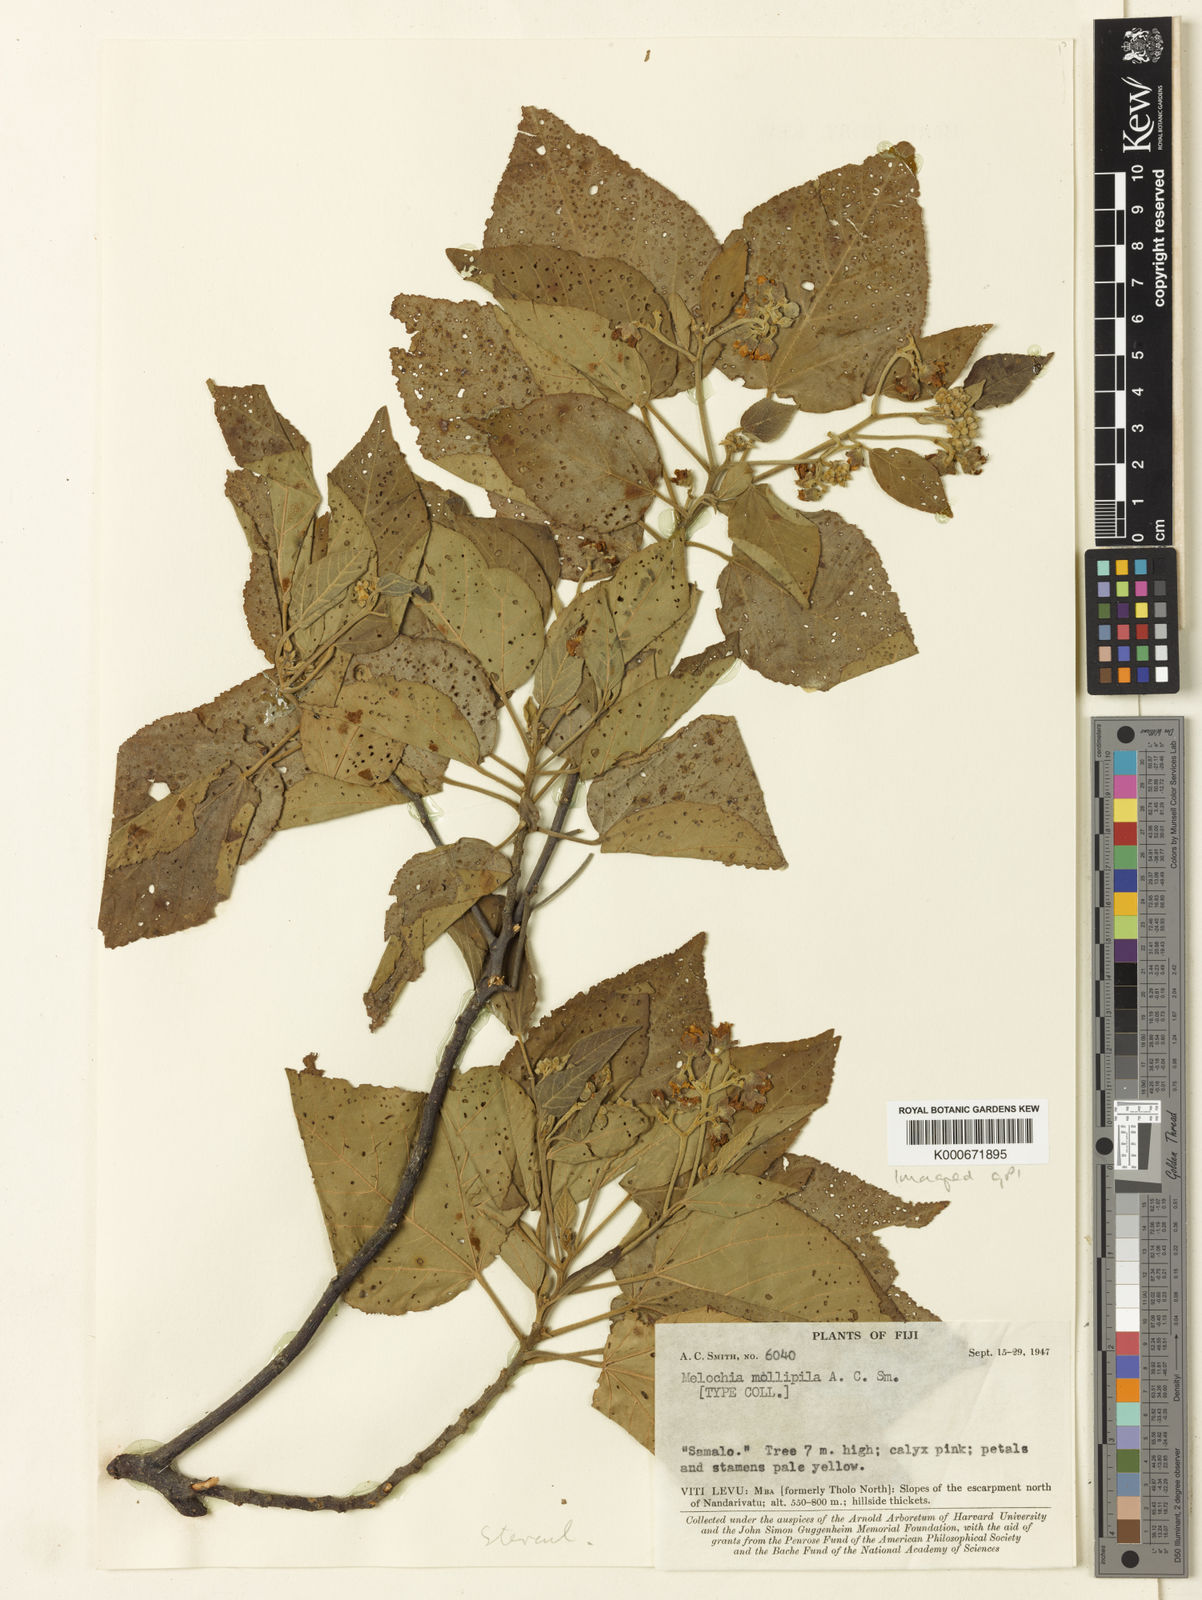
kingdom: Plantae
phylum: Tracheophyta
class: Magnoliopsida
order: Malvales
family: Malvaceae
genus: Melochia
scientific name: Melochia mollipila
